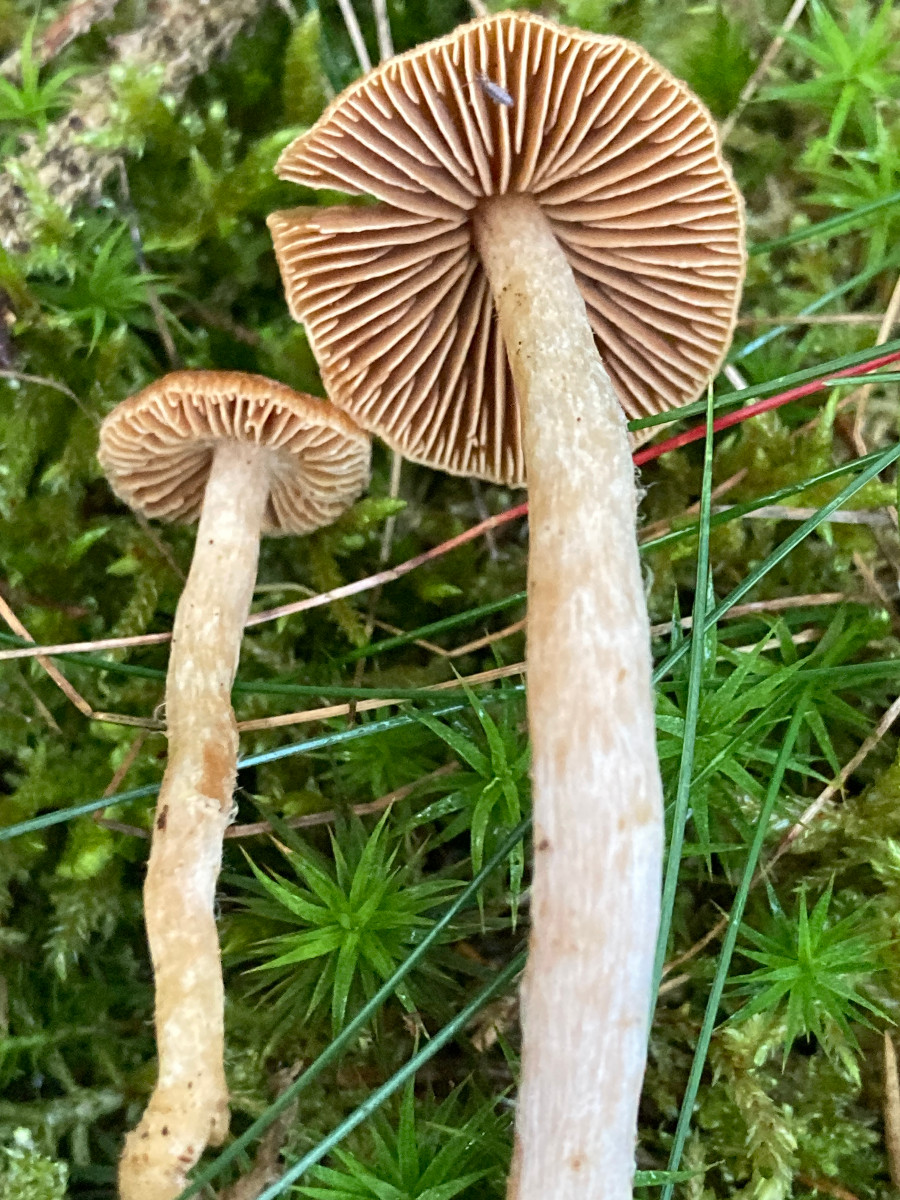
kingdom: Fungi
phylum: Basidiomycota
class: Agaricomycetes
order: Agaricales
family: Cortinariaceae
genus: Cortinarius
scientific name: Cortinarius
